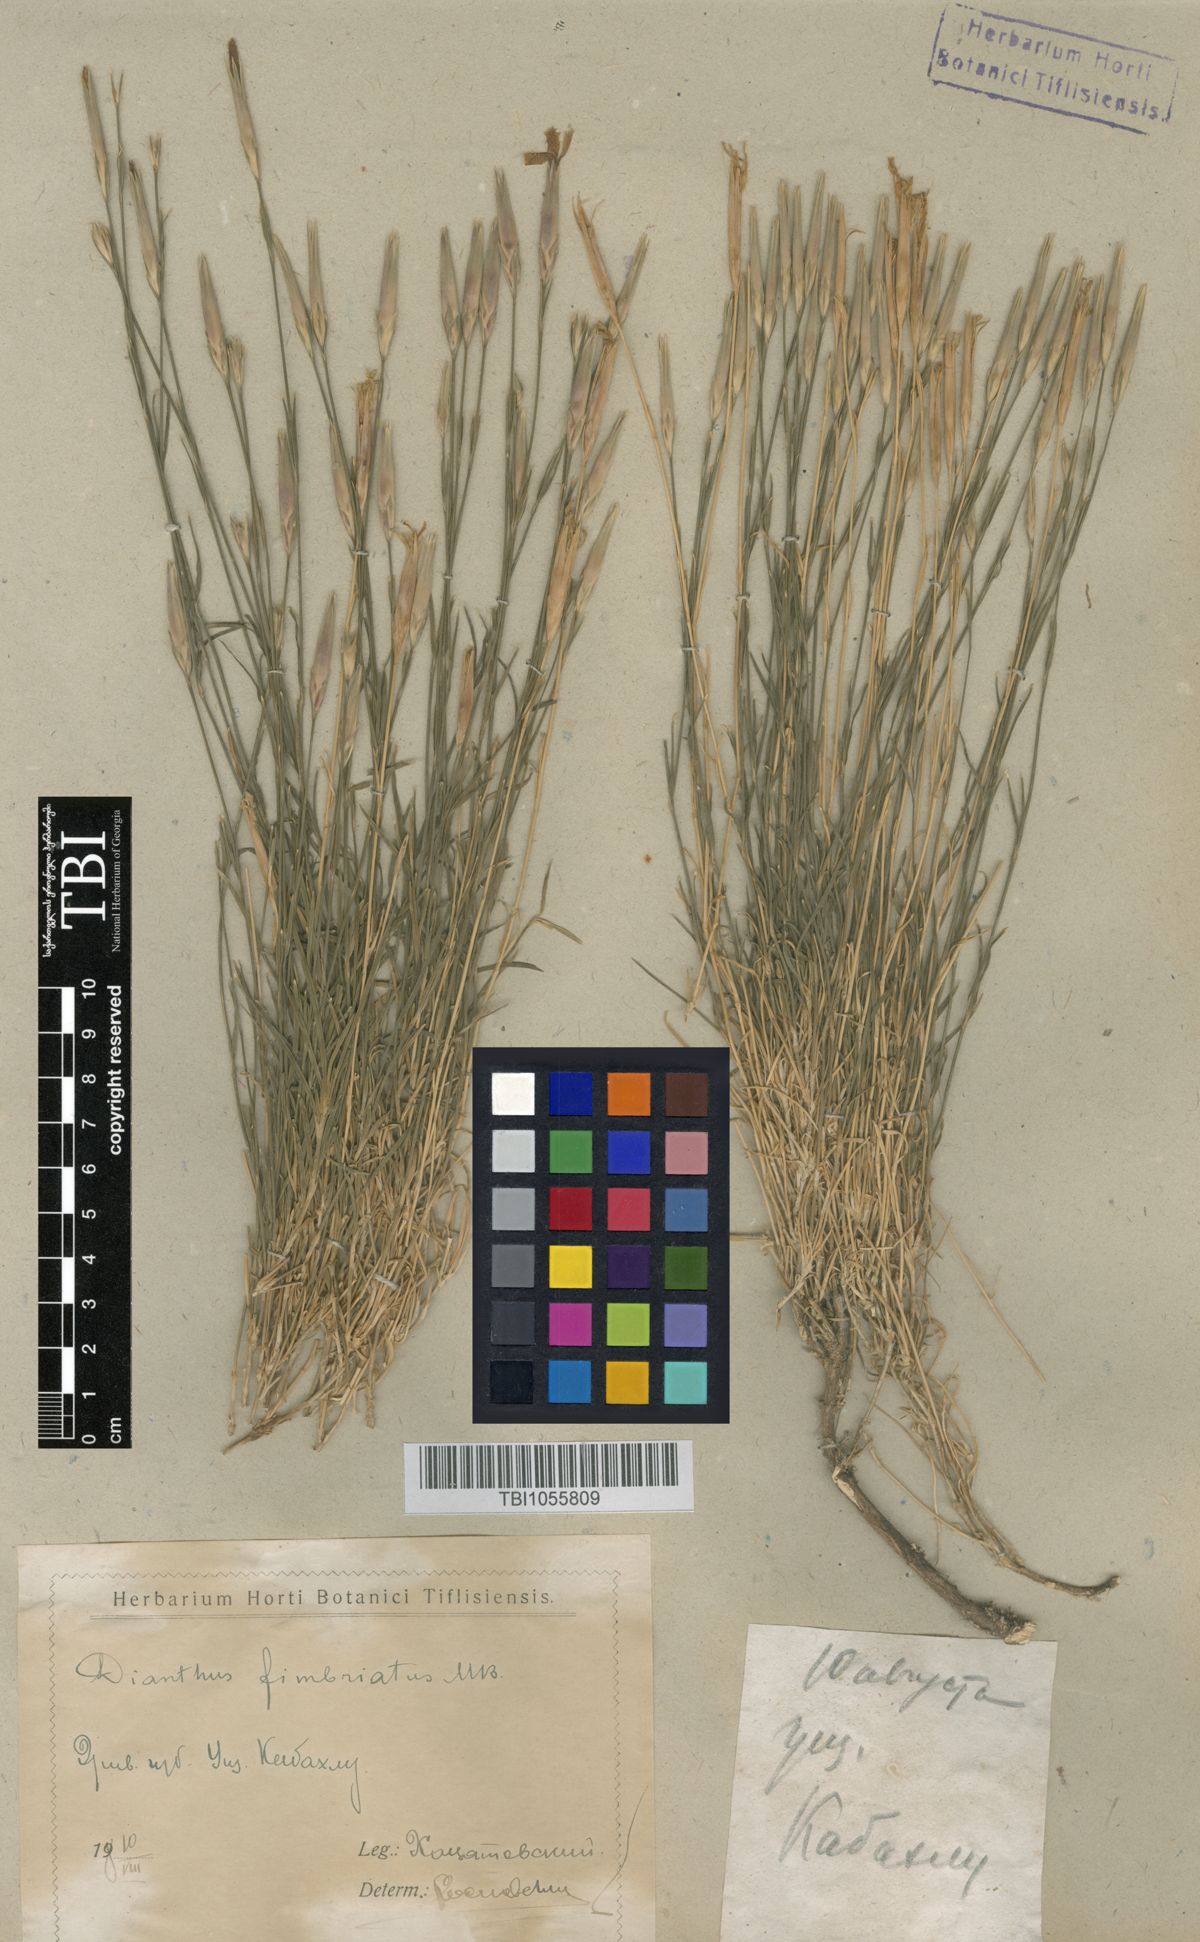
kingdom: Plantae
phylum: Tracheophyta
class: Magnoliopsida
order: Caryophyllales
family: Caryophyllaceae
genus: Dianthus
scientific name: Dianthus orientalis
